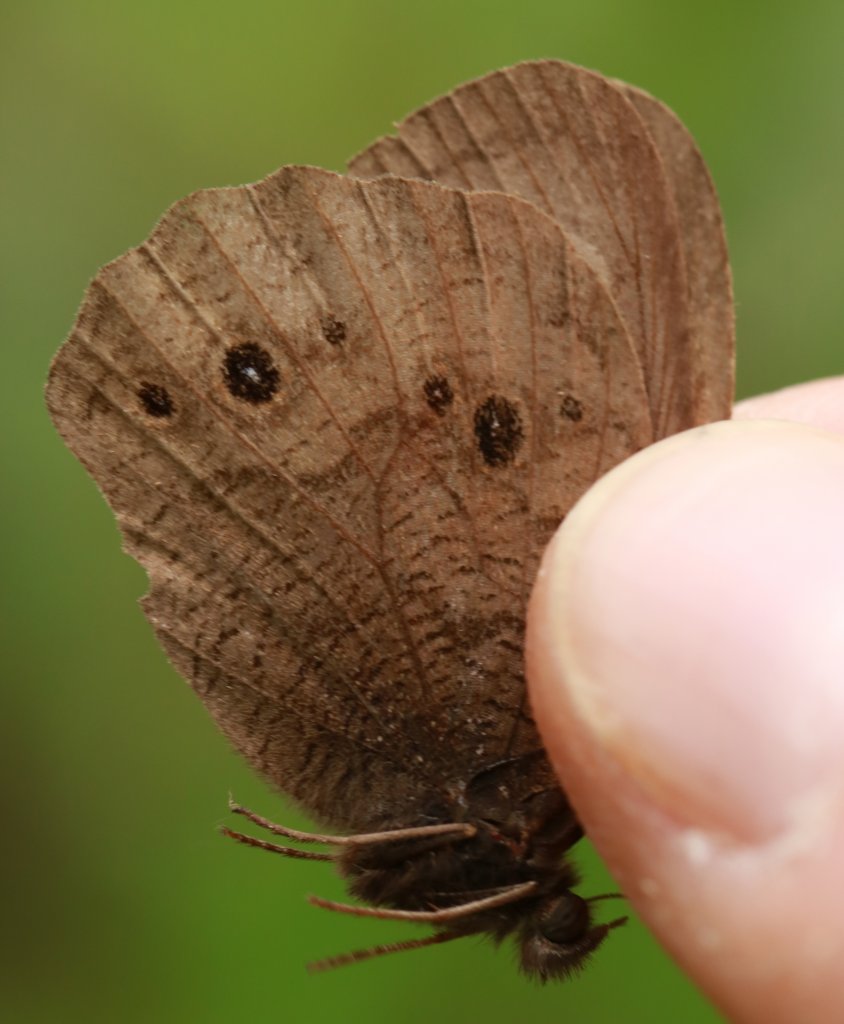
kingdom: Animalia
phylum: Arthropoda
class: Insecta
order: Lepidoptera
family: Nymphalidae
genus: Cercyonis
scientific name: Cercyonis pegala
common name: Common Wood-Nymph
